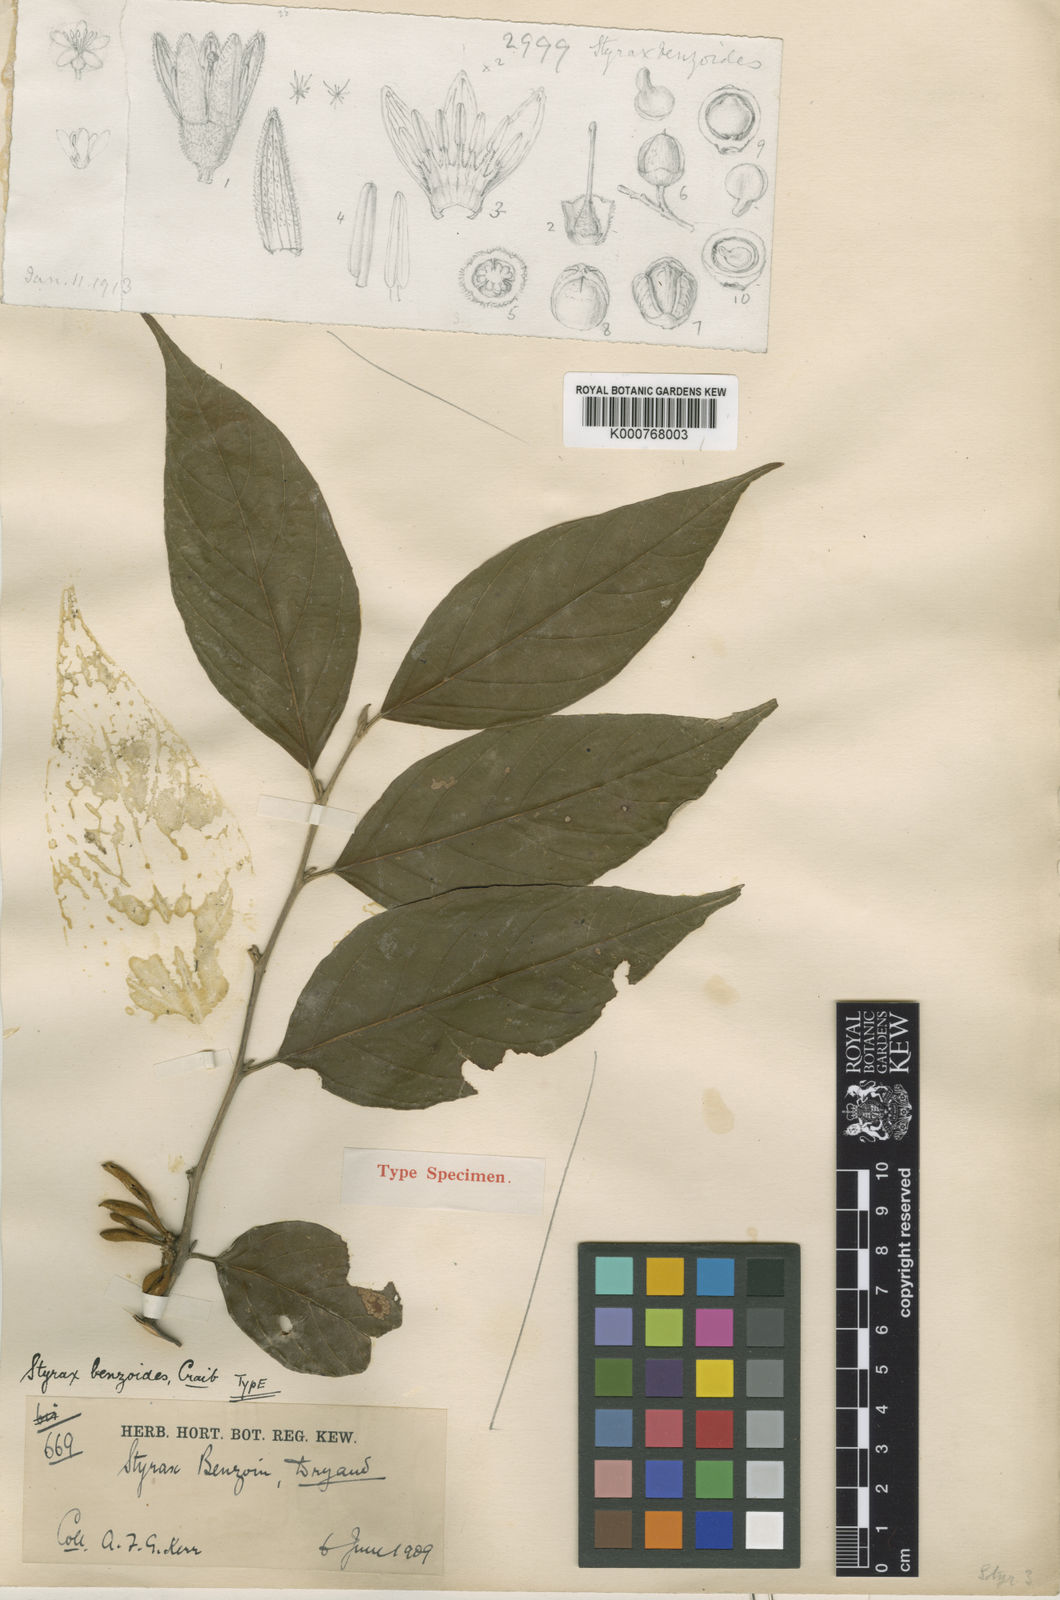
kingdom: Plantae
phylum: Tracheophyta
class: Magnoliopsida
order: Ericales
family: Styracaceae
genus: Styrax
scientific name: Styrax benzoides
